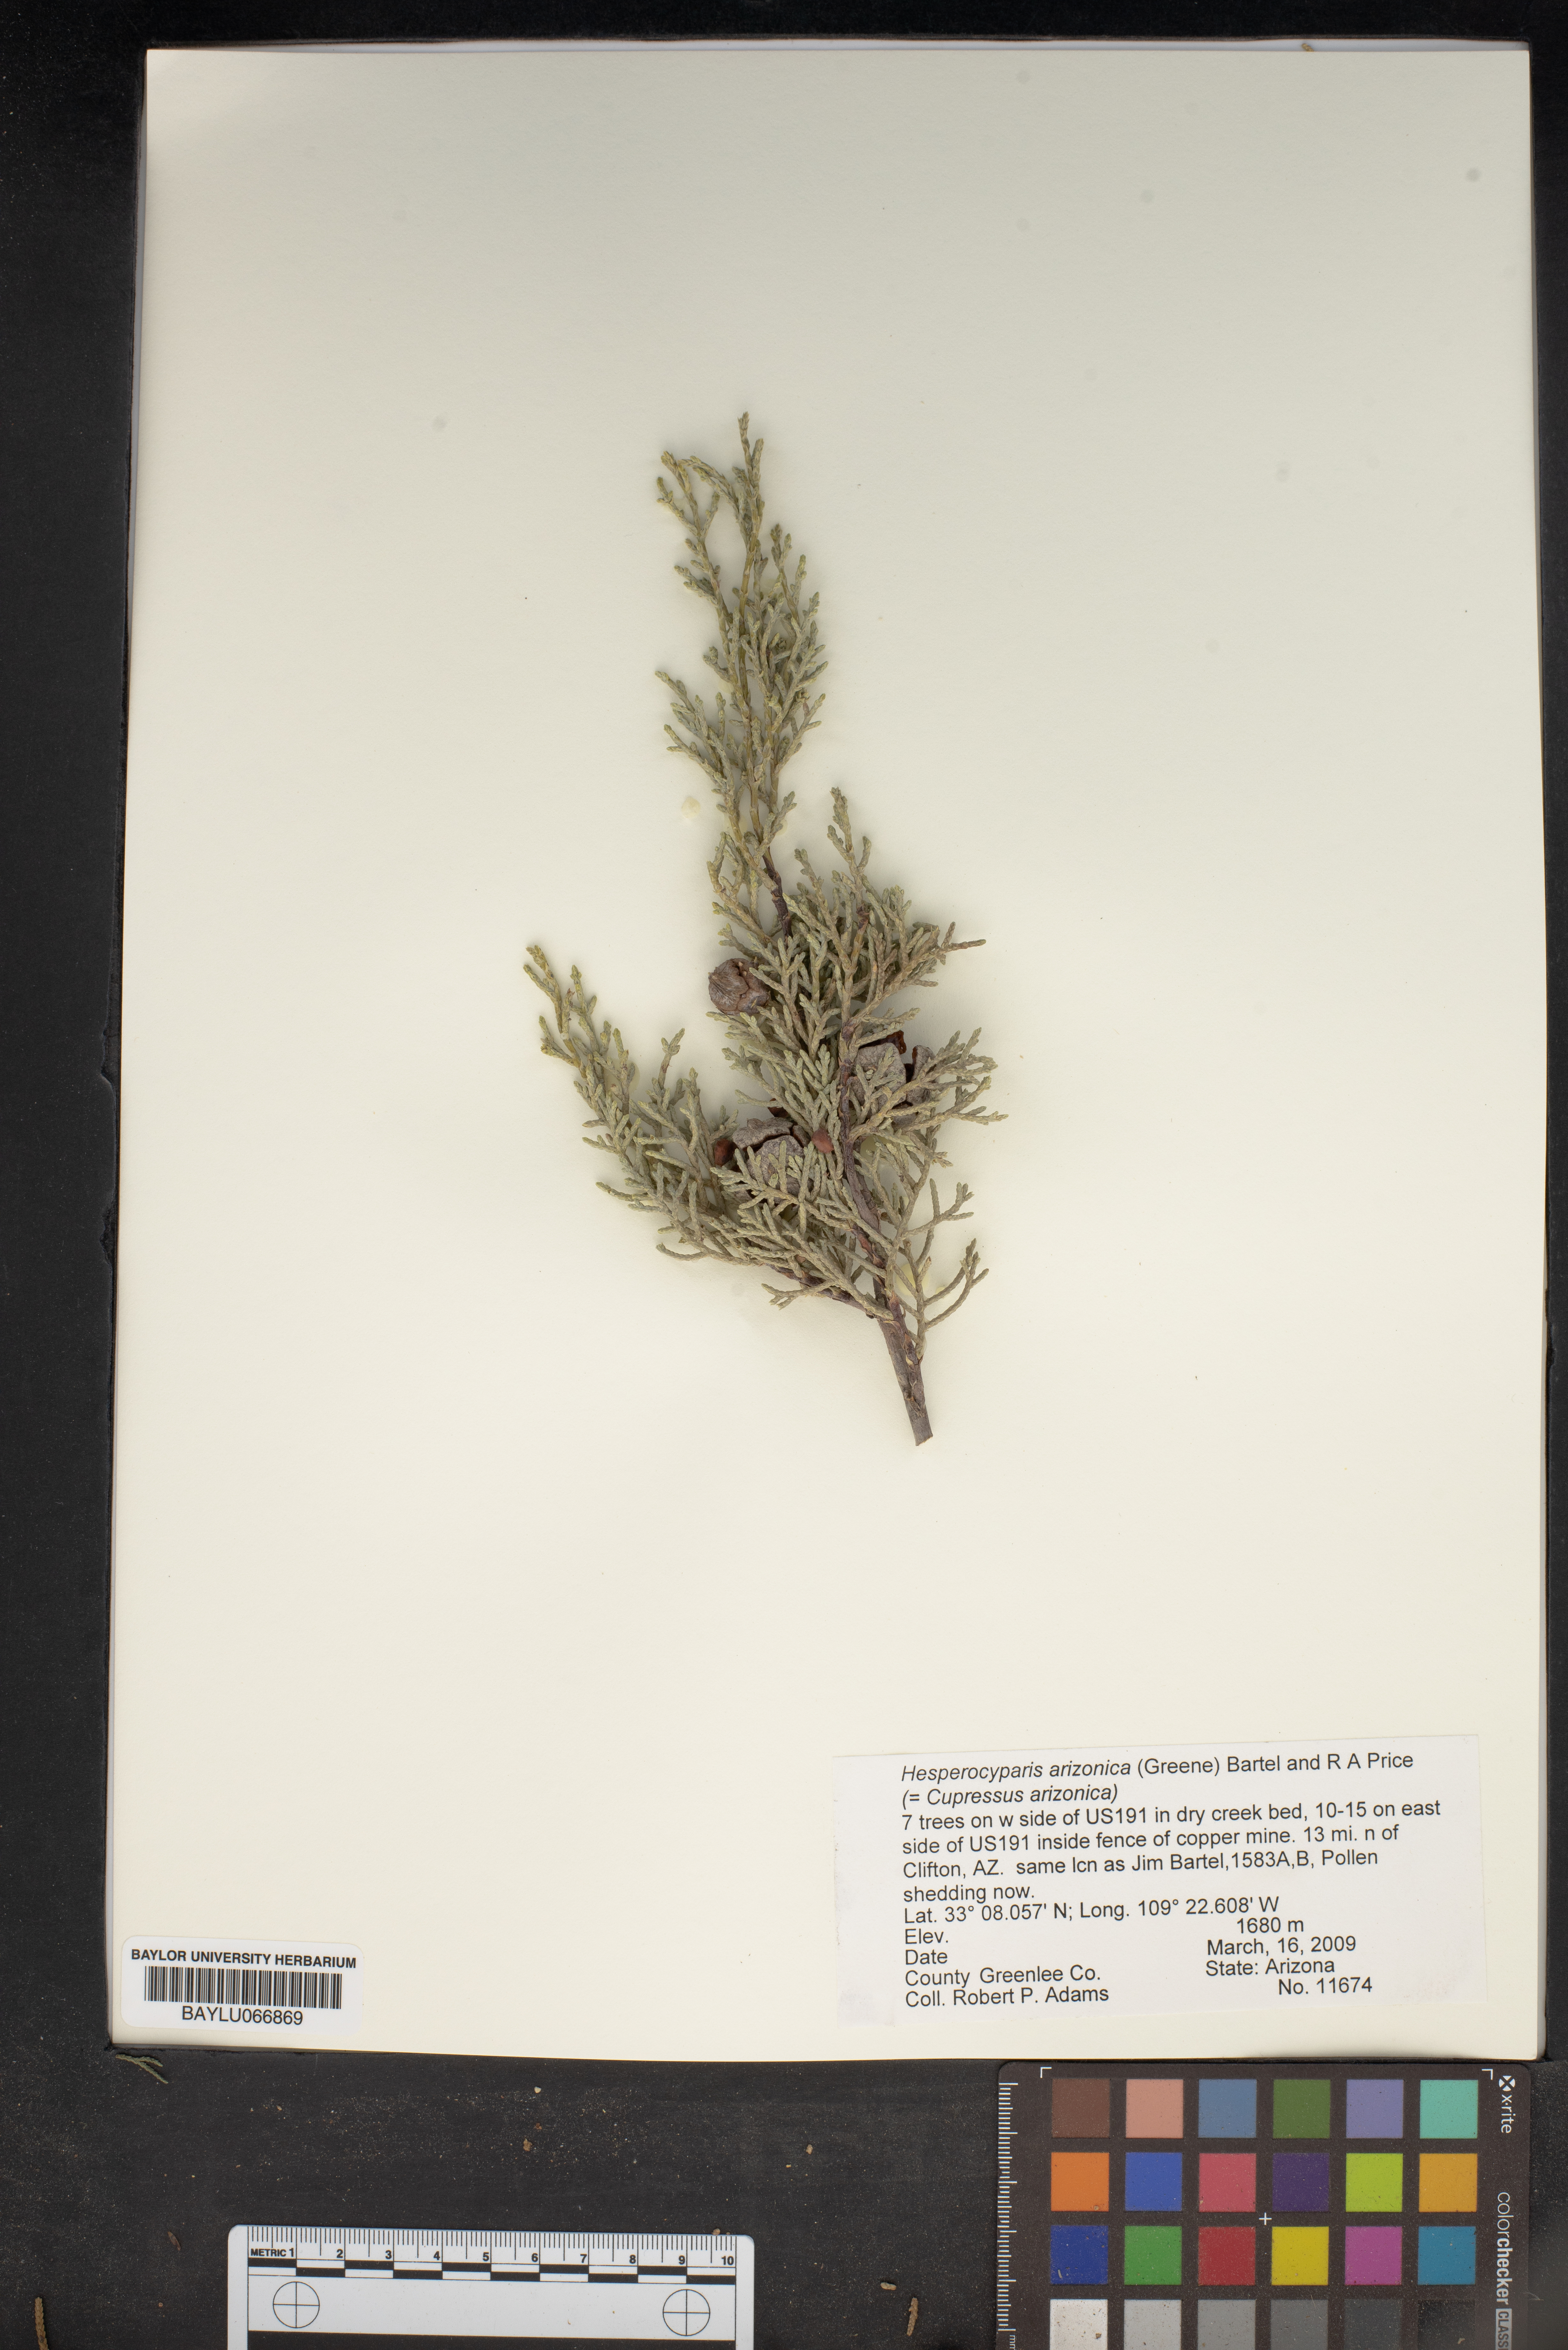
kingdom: Plantae
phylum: Tracheophyta
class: Pinopsida
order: Pinales
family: Cupressaceae
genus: Cupressus
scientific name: Cupressus arizonica
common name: Arizona cypress
